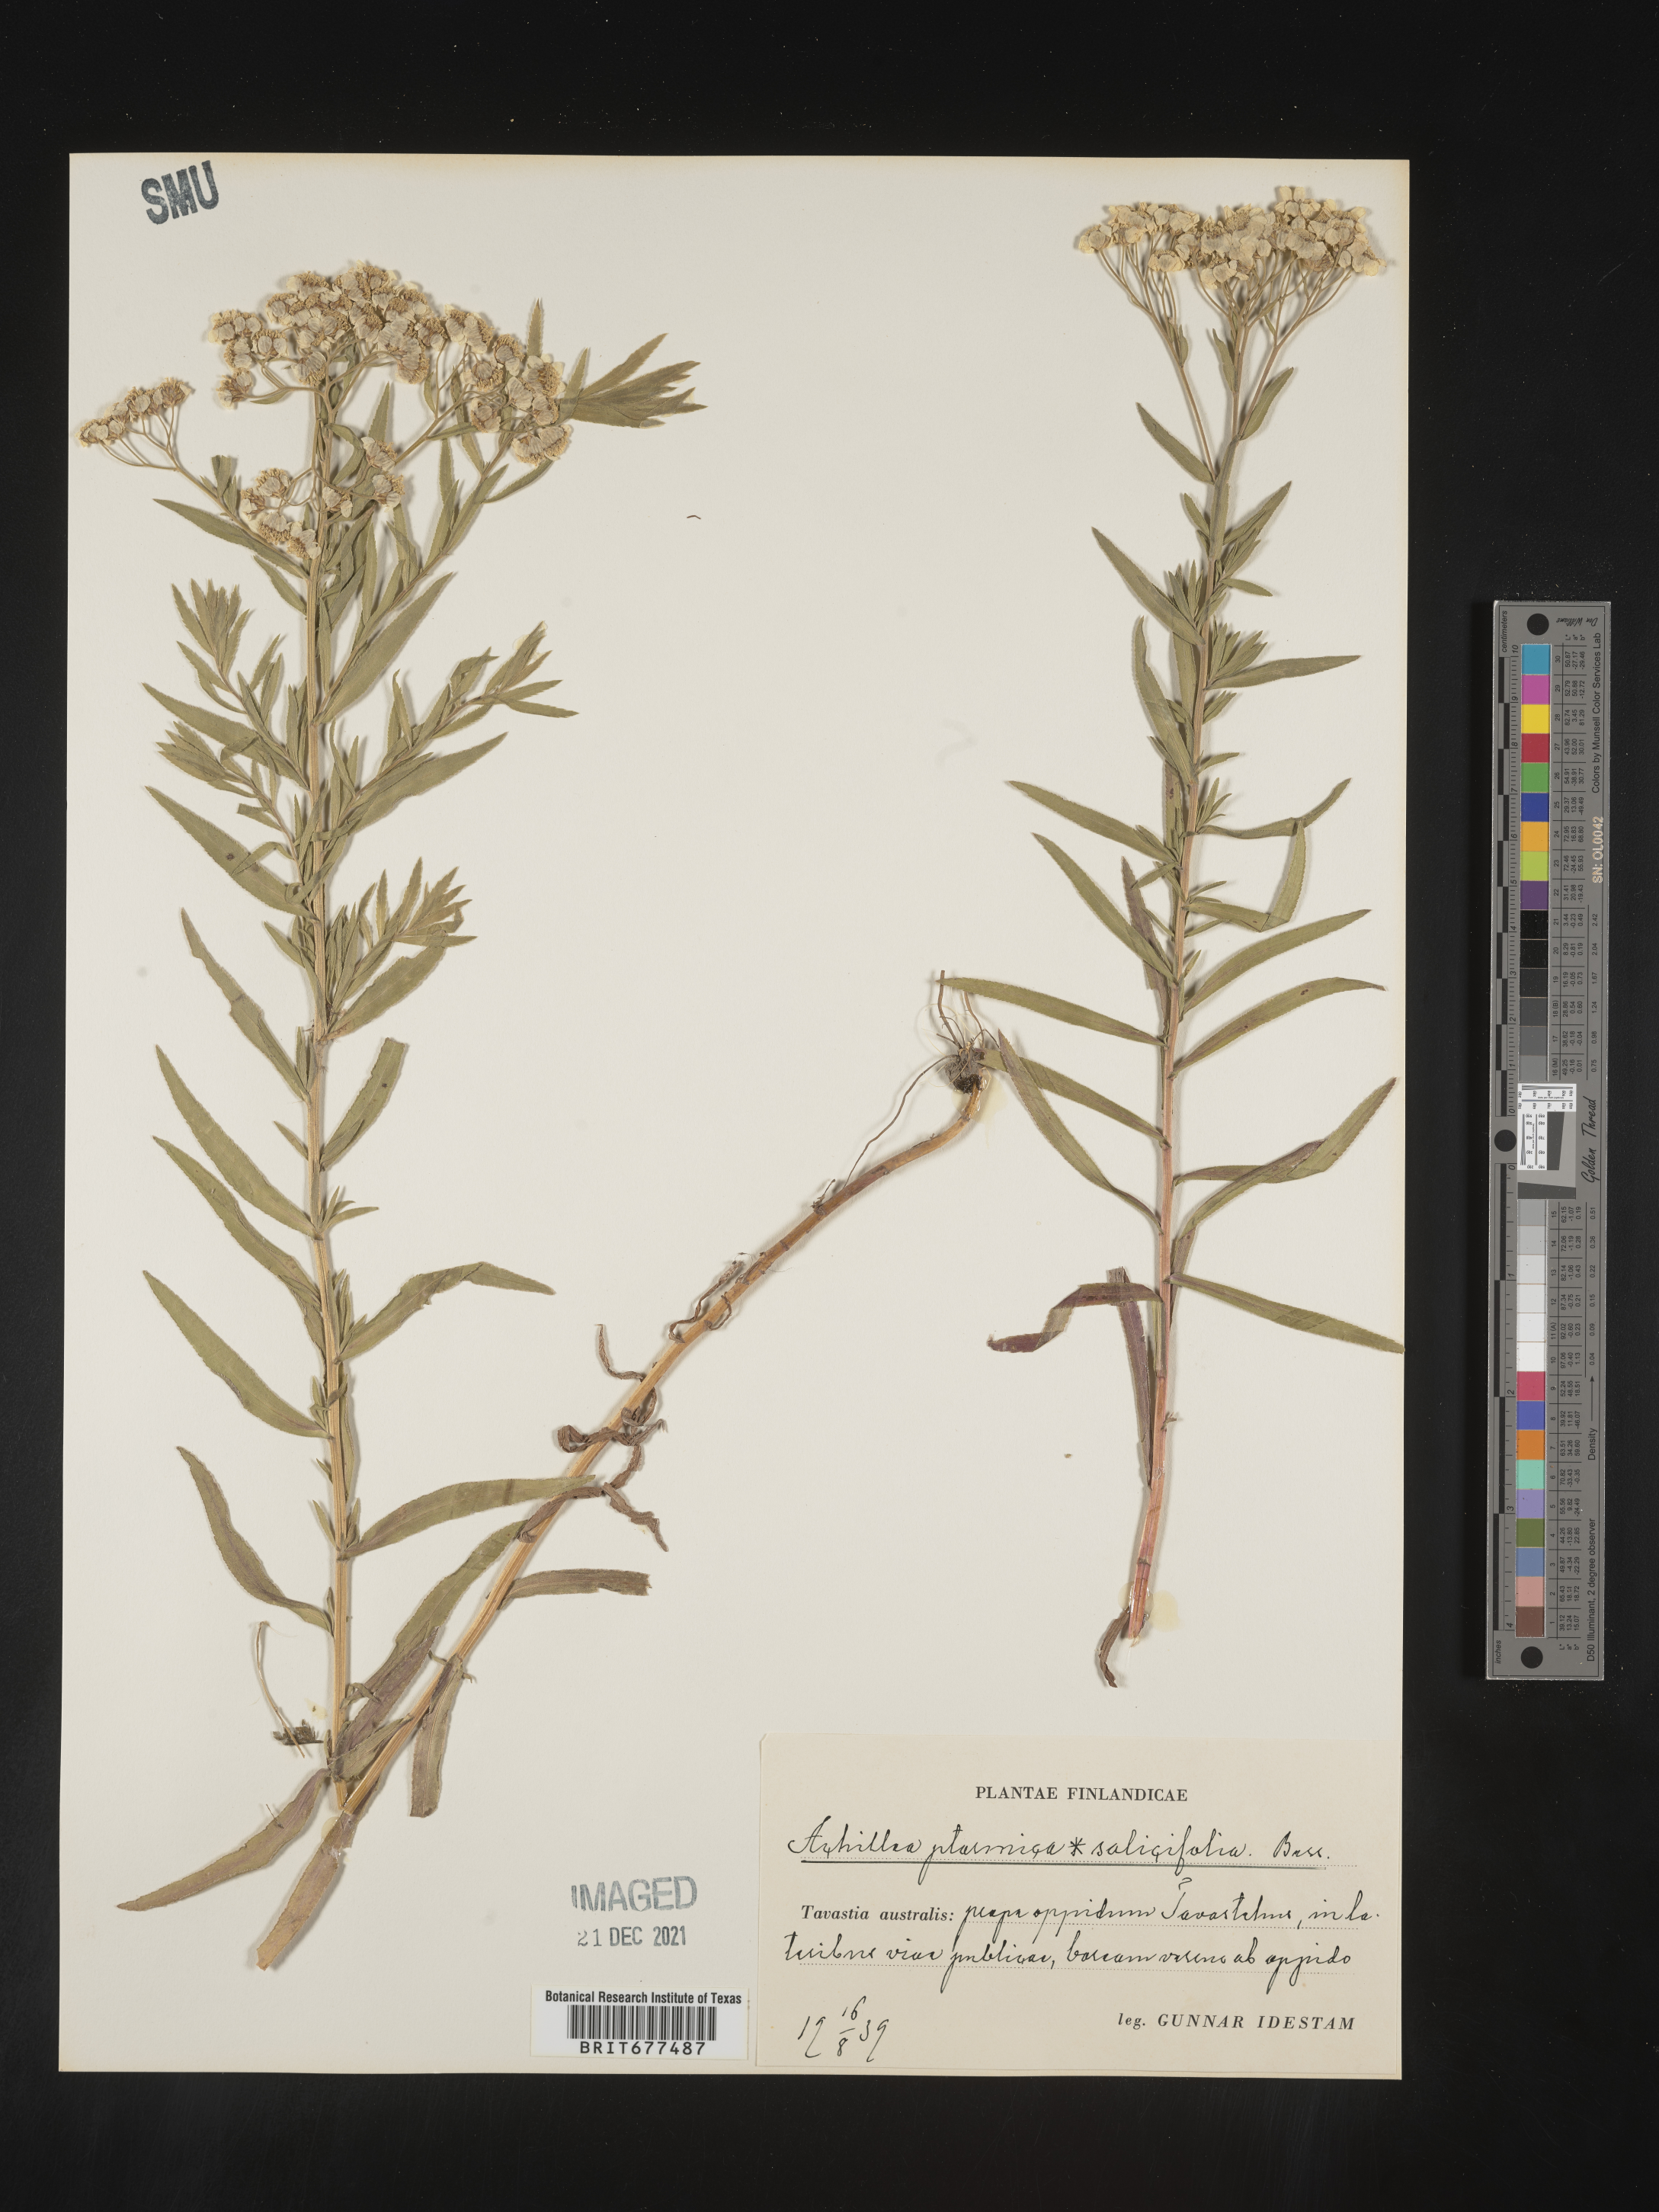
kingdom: Plantae
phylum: Tracheophyta
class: Magnoliopsida
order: Asterales
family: Asteraceae
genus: Achillea
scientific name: Achillea ptarmica
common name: Sneezeweed
